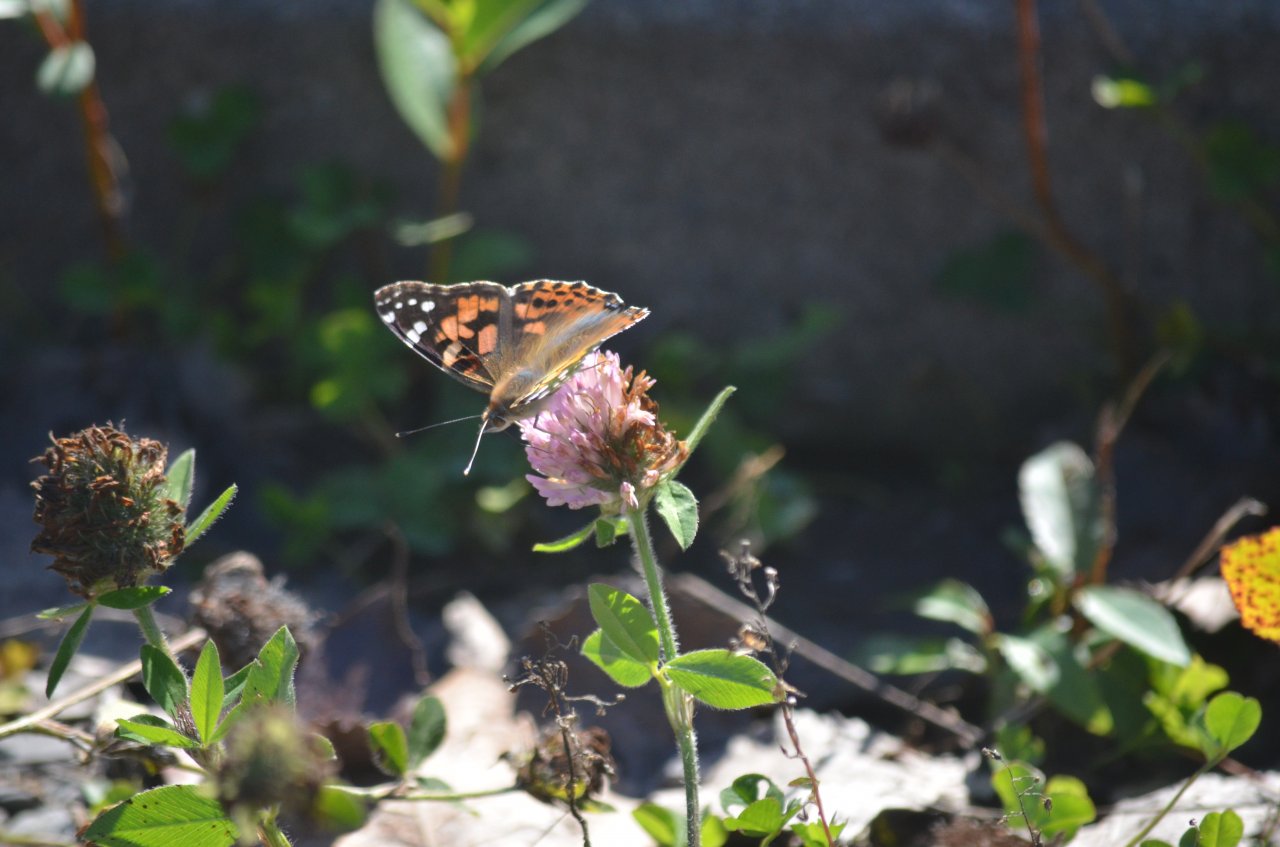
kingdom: Animalia
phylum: Arthropoda
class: Insecta
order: Lepidoptera
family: Nymphalidae
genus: Vanessa
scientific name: Vanessa cardui
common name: Painted Lady
